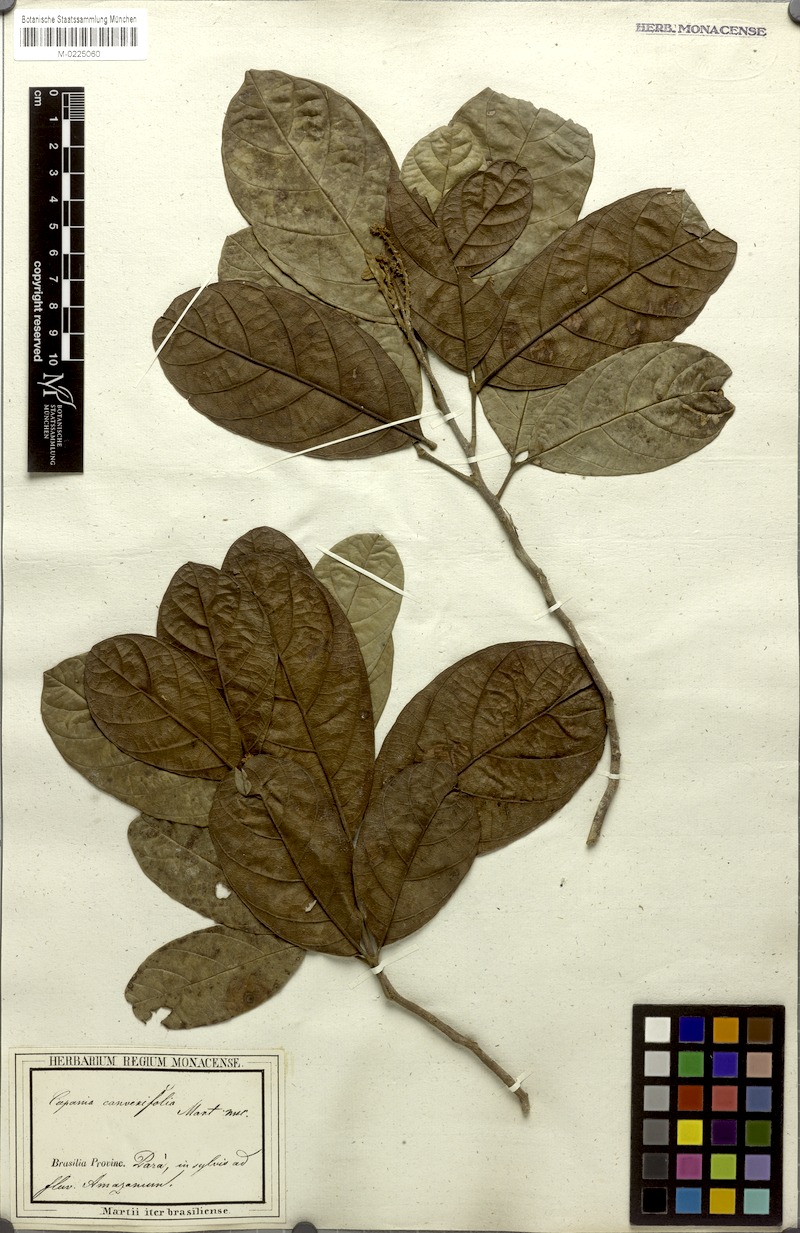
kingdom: Plantae
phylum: Tracheophyta
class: Magnoliopsida
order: Sapindales
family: Sapindaceae
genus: Cupania
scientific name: Cupania diphylla
